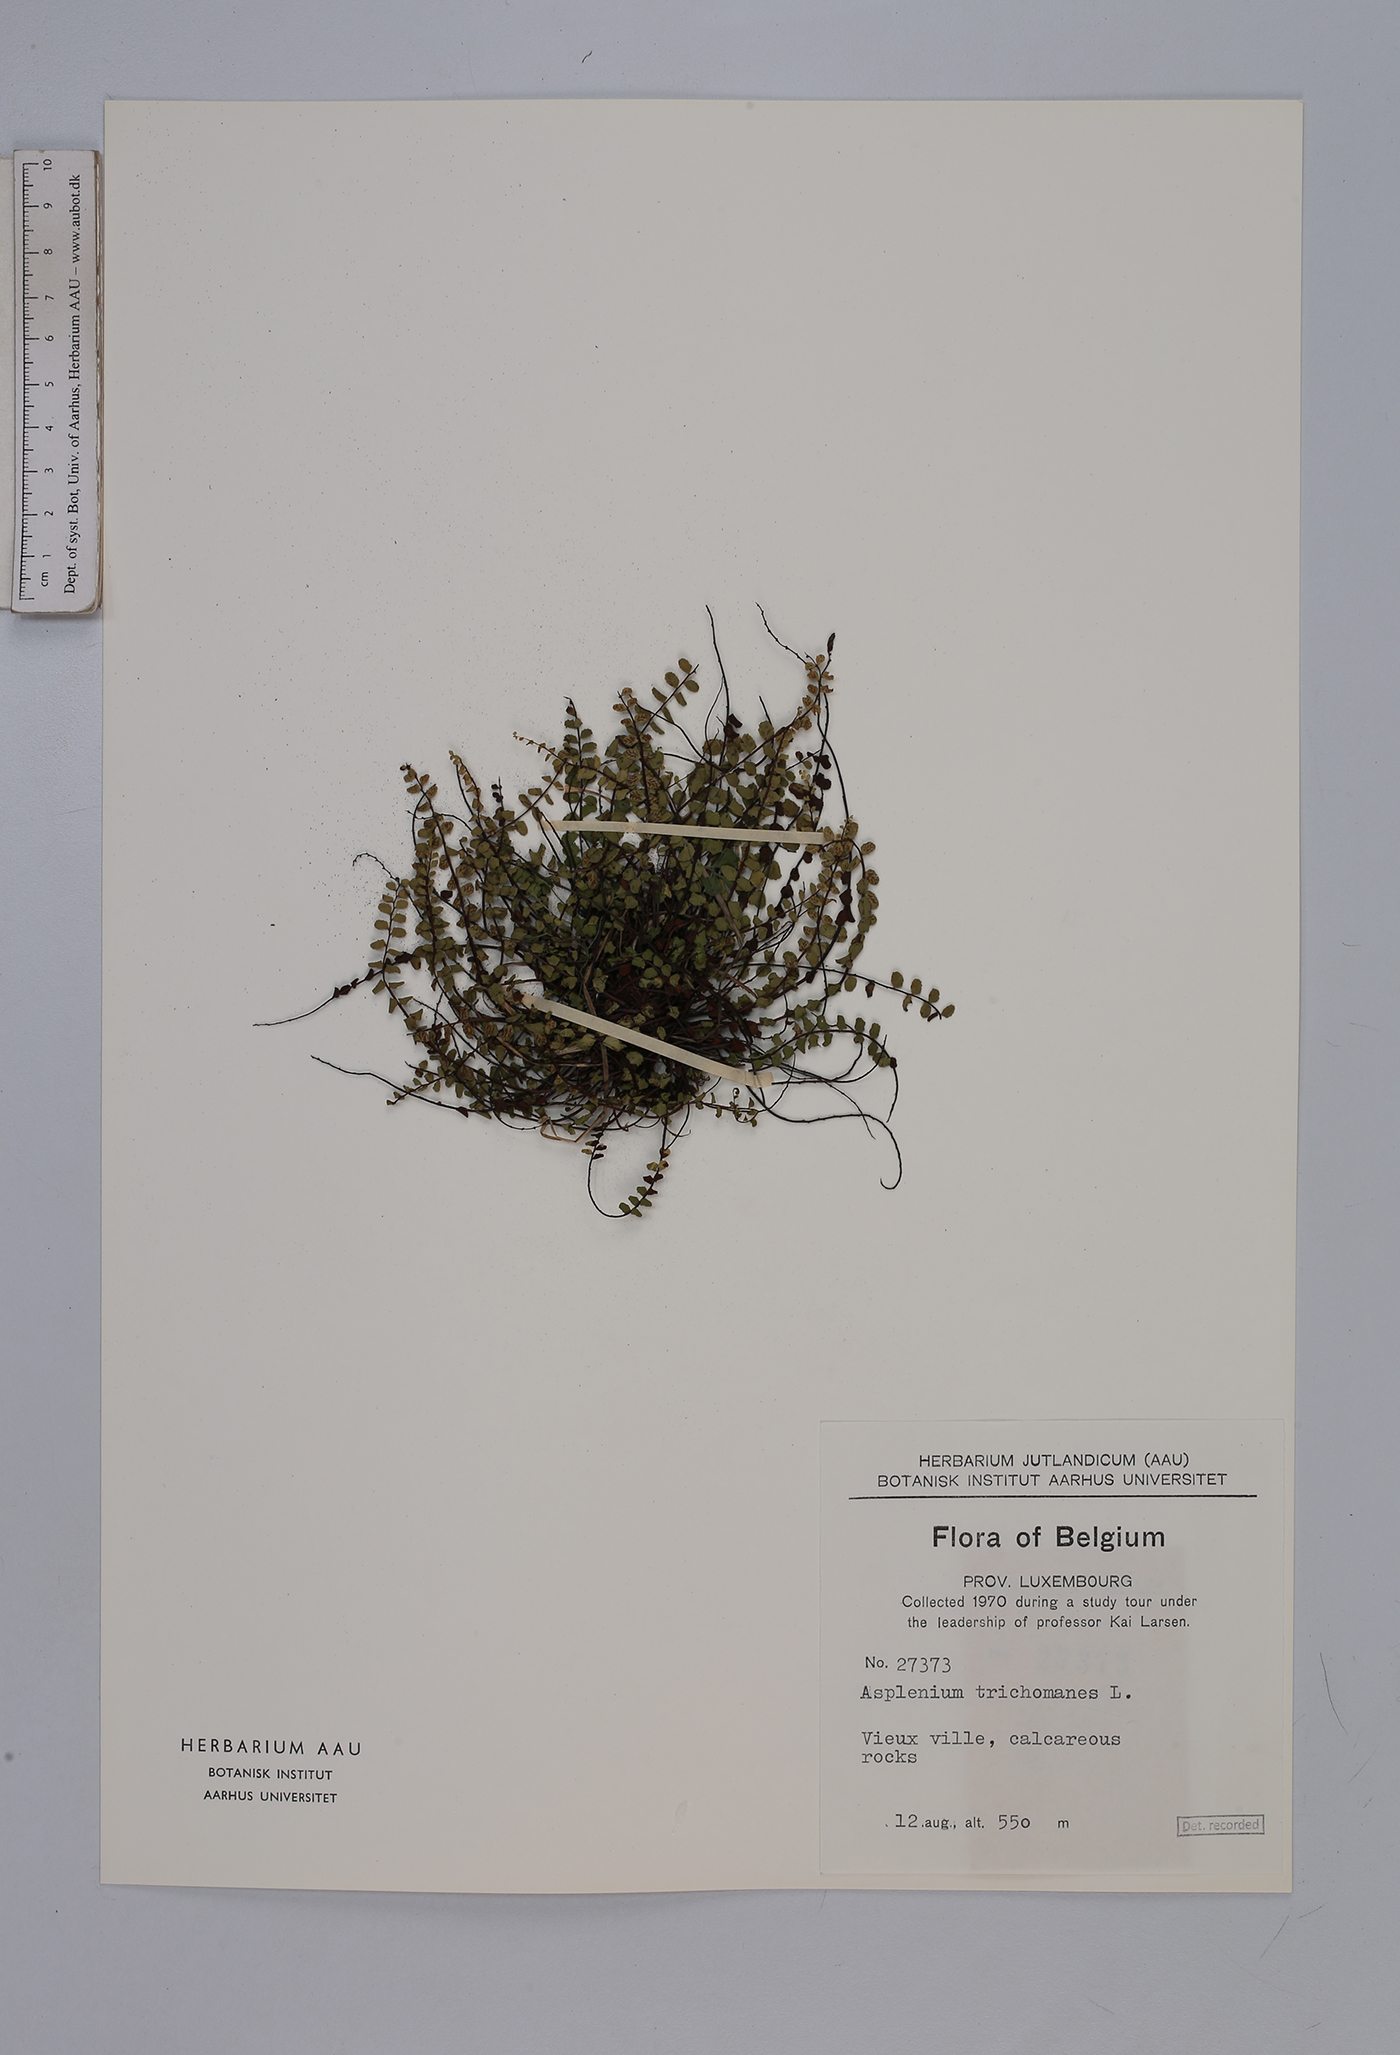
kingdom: Plantae
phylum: Tracheophyta
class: Polypodiopsida
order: Polypodiales
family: Aspleniaceae
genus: Asplenium
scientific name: Asplenium trichomanes
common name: Maidenhair spleenwort
